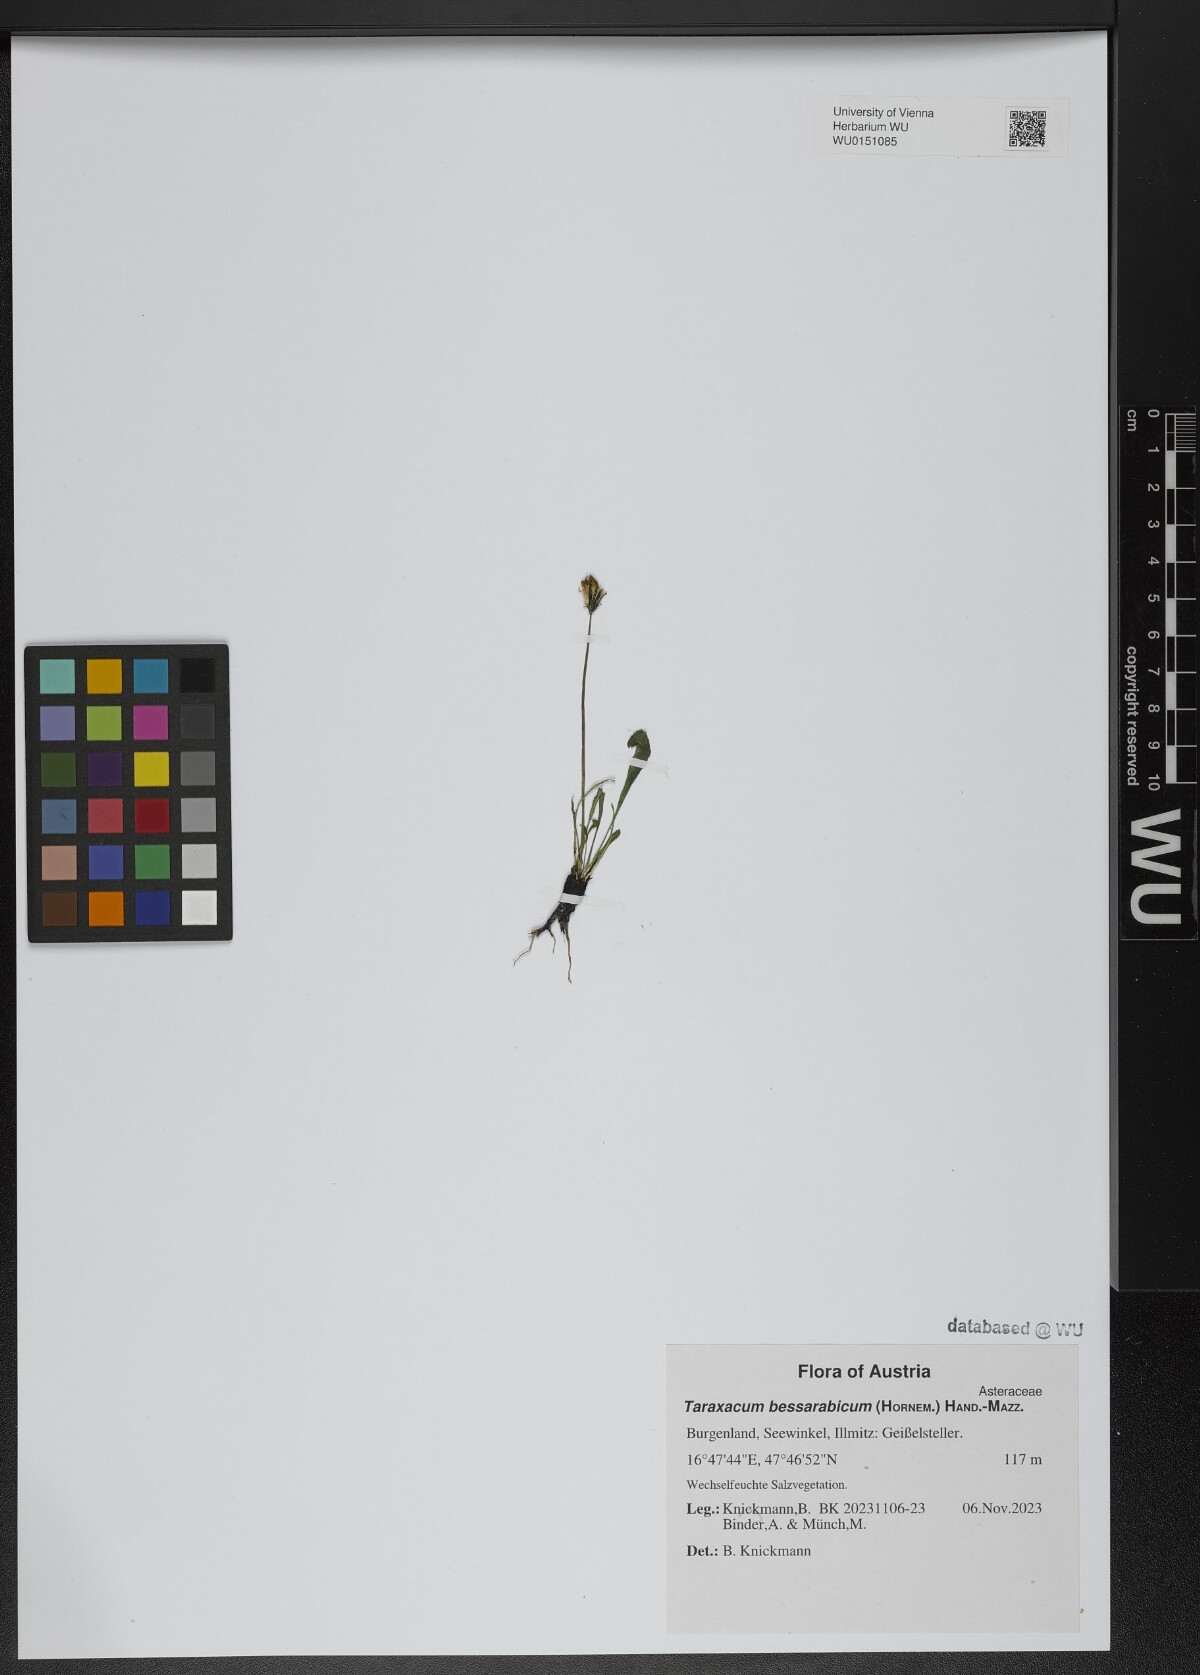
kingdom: Plantae
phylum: Tracheophyta
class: Magnoliopsida
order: Asterales
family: Asteraceae
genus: Taraxacum
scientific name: Taraxacum bessarabicum
